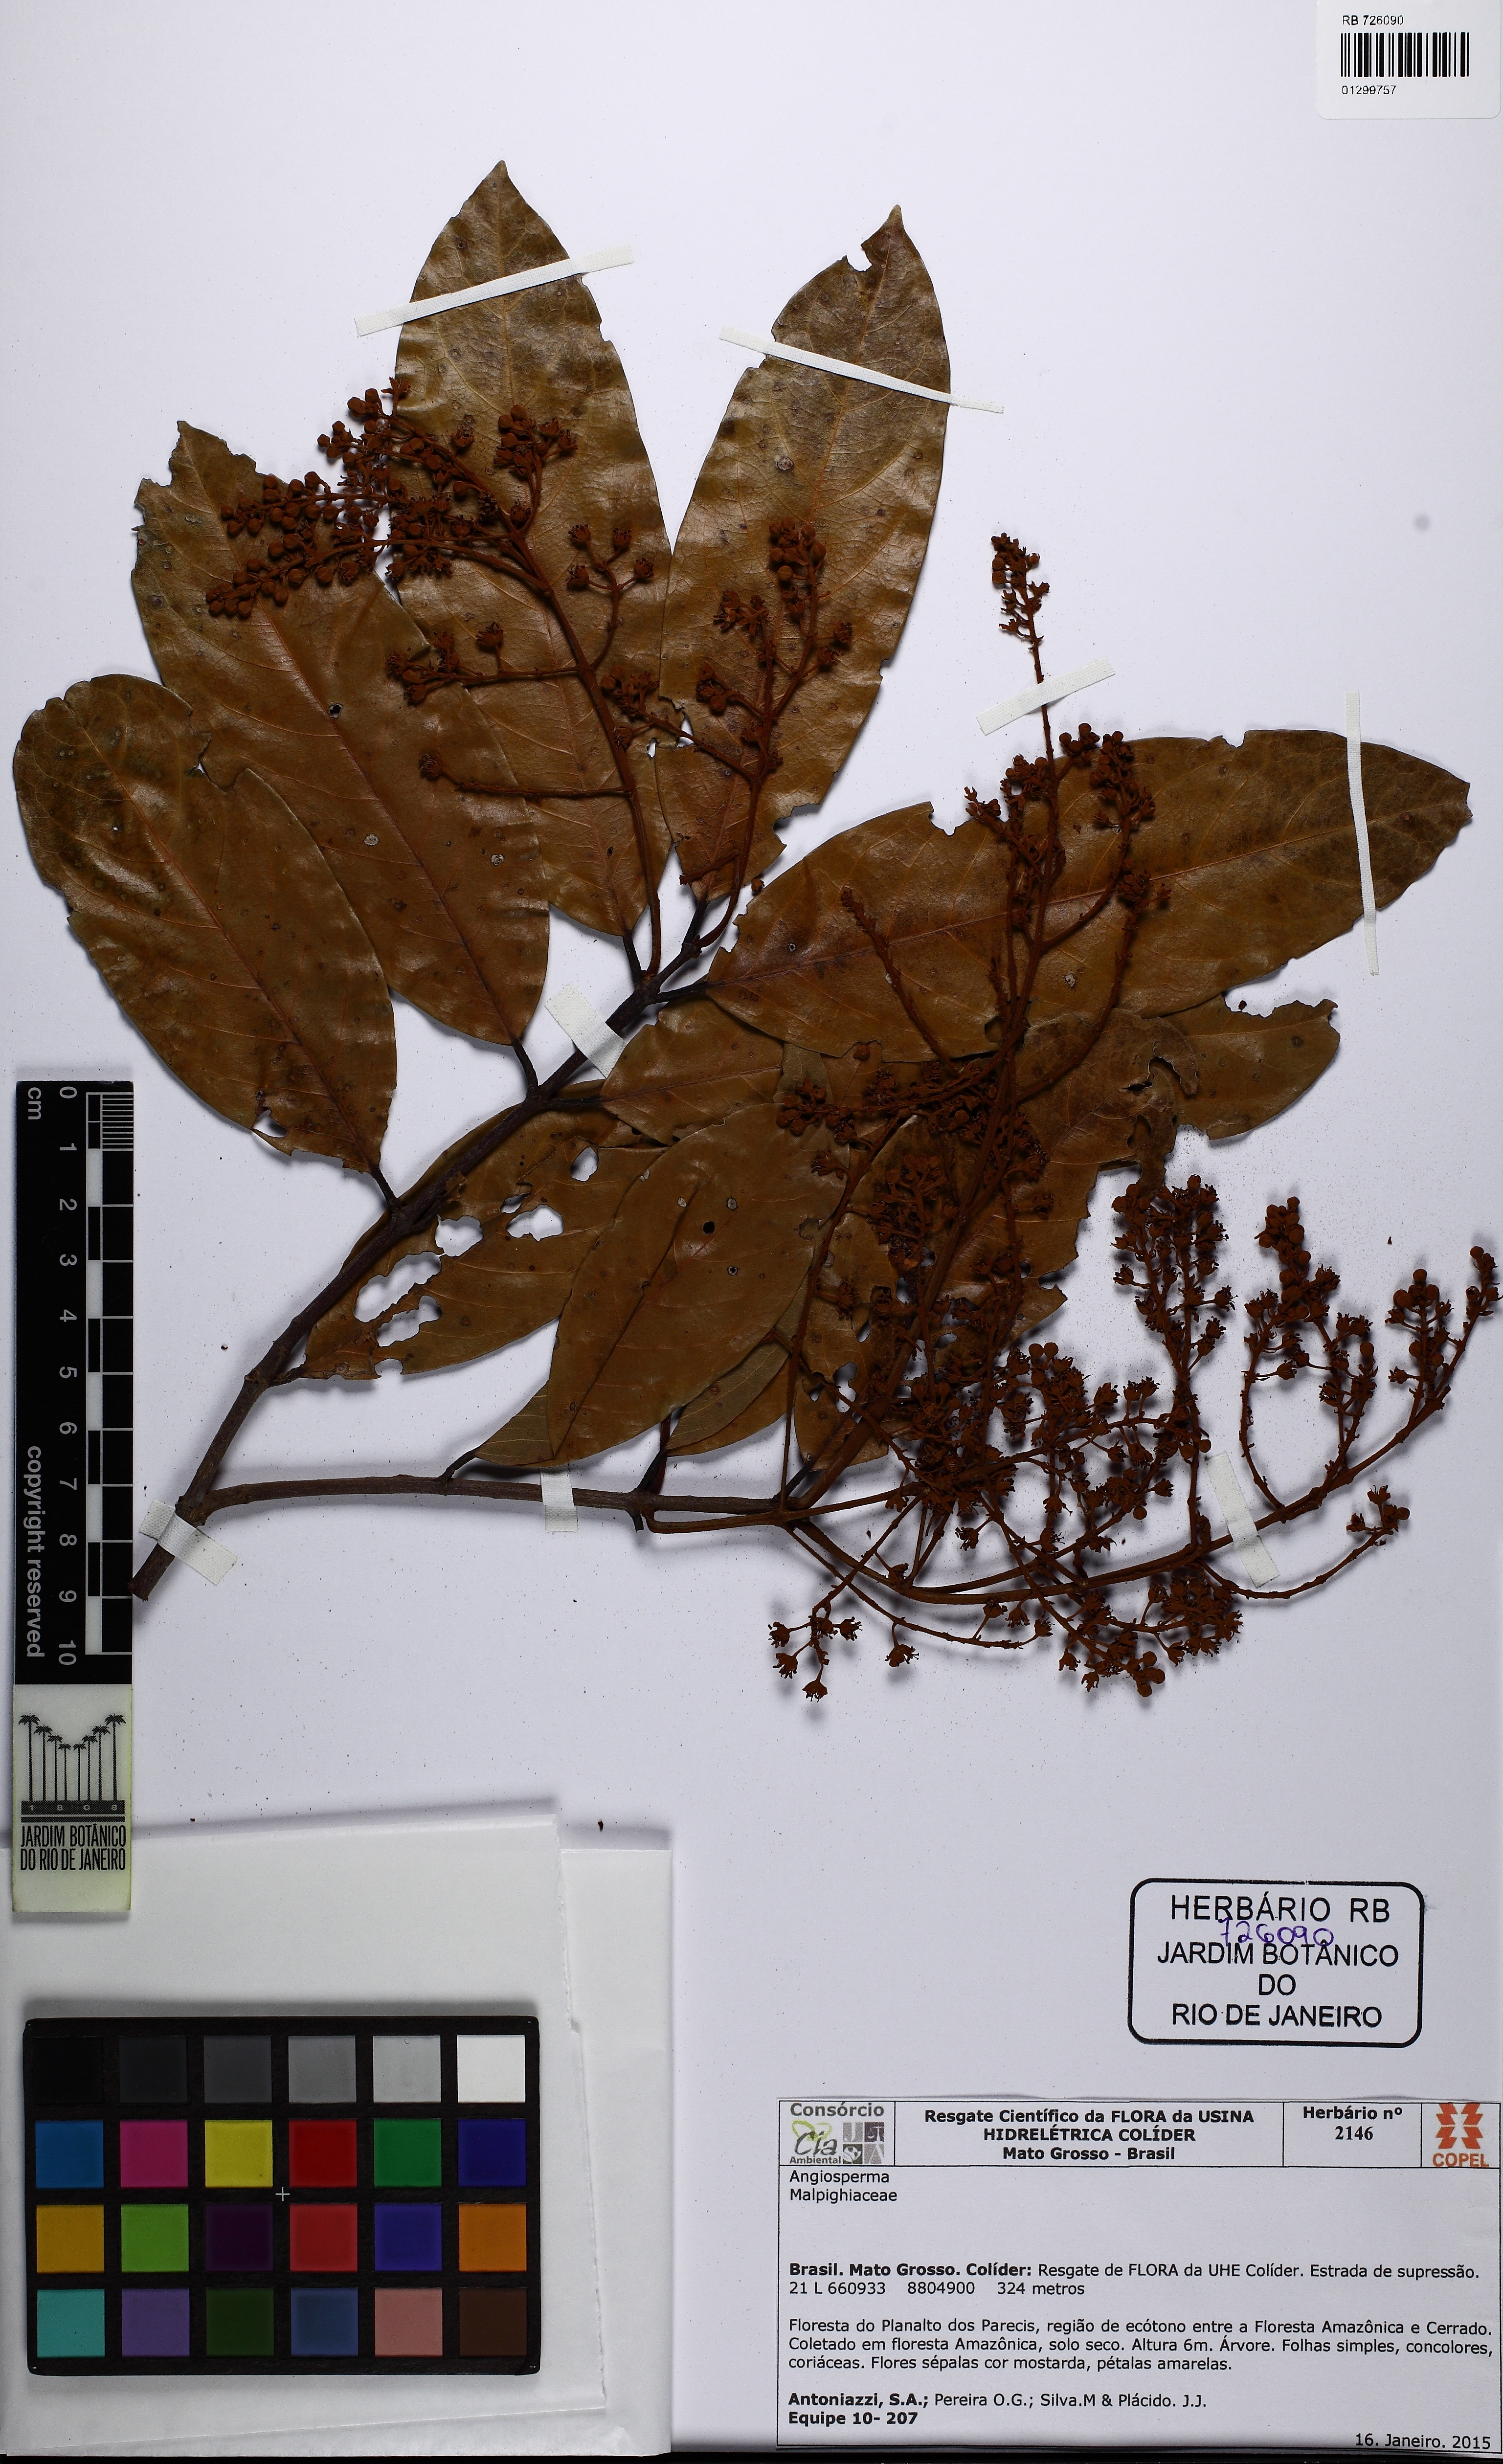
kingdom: Plantae
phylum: Tracheophyta
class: Magnoliopsida
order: Malpighiales
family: Malpighiaceae
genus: Heteropterys
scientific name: Heteropterys
